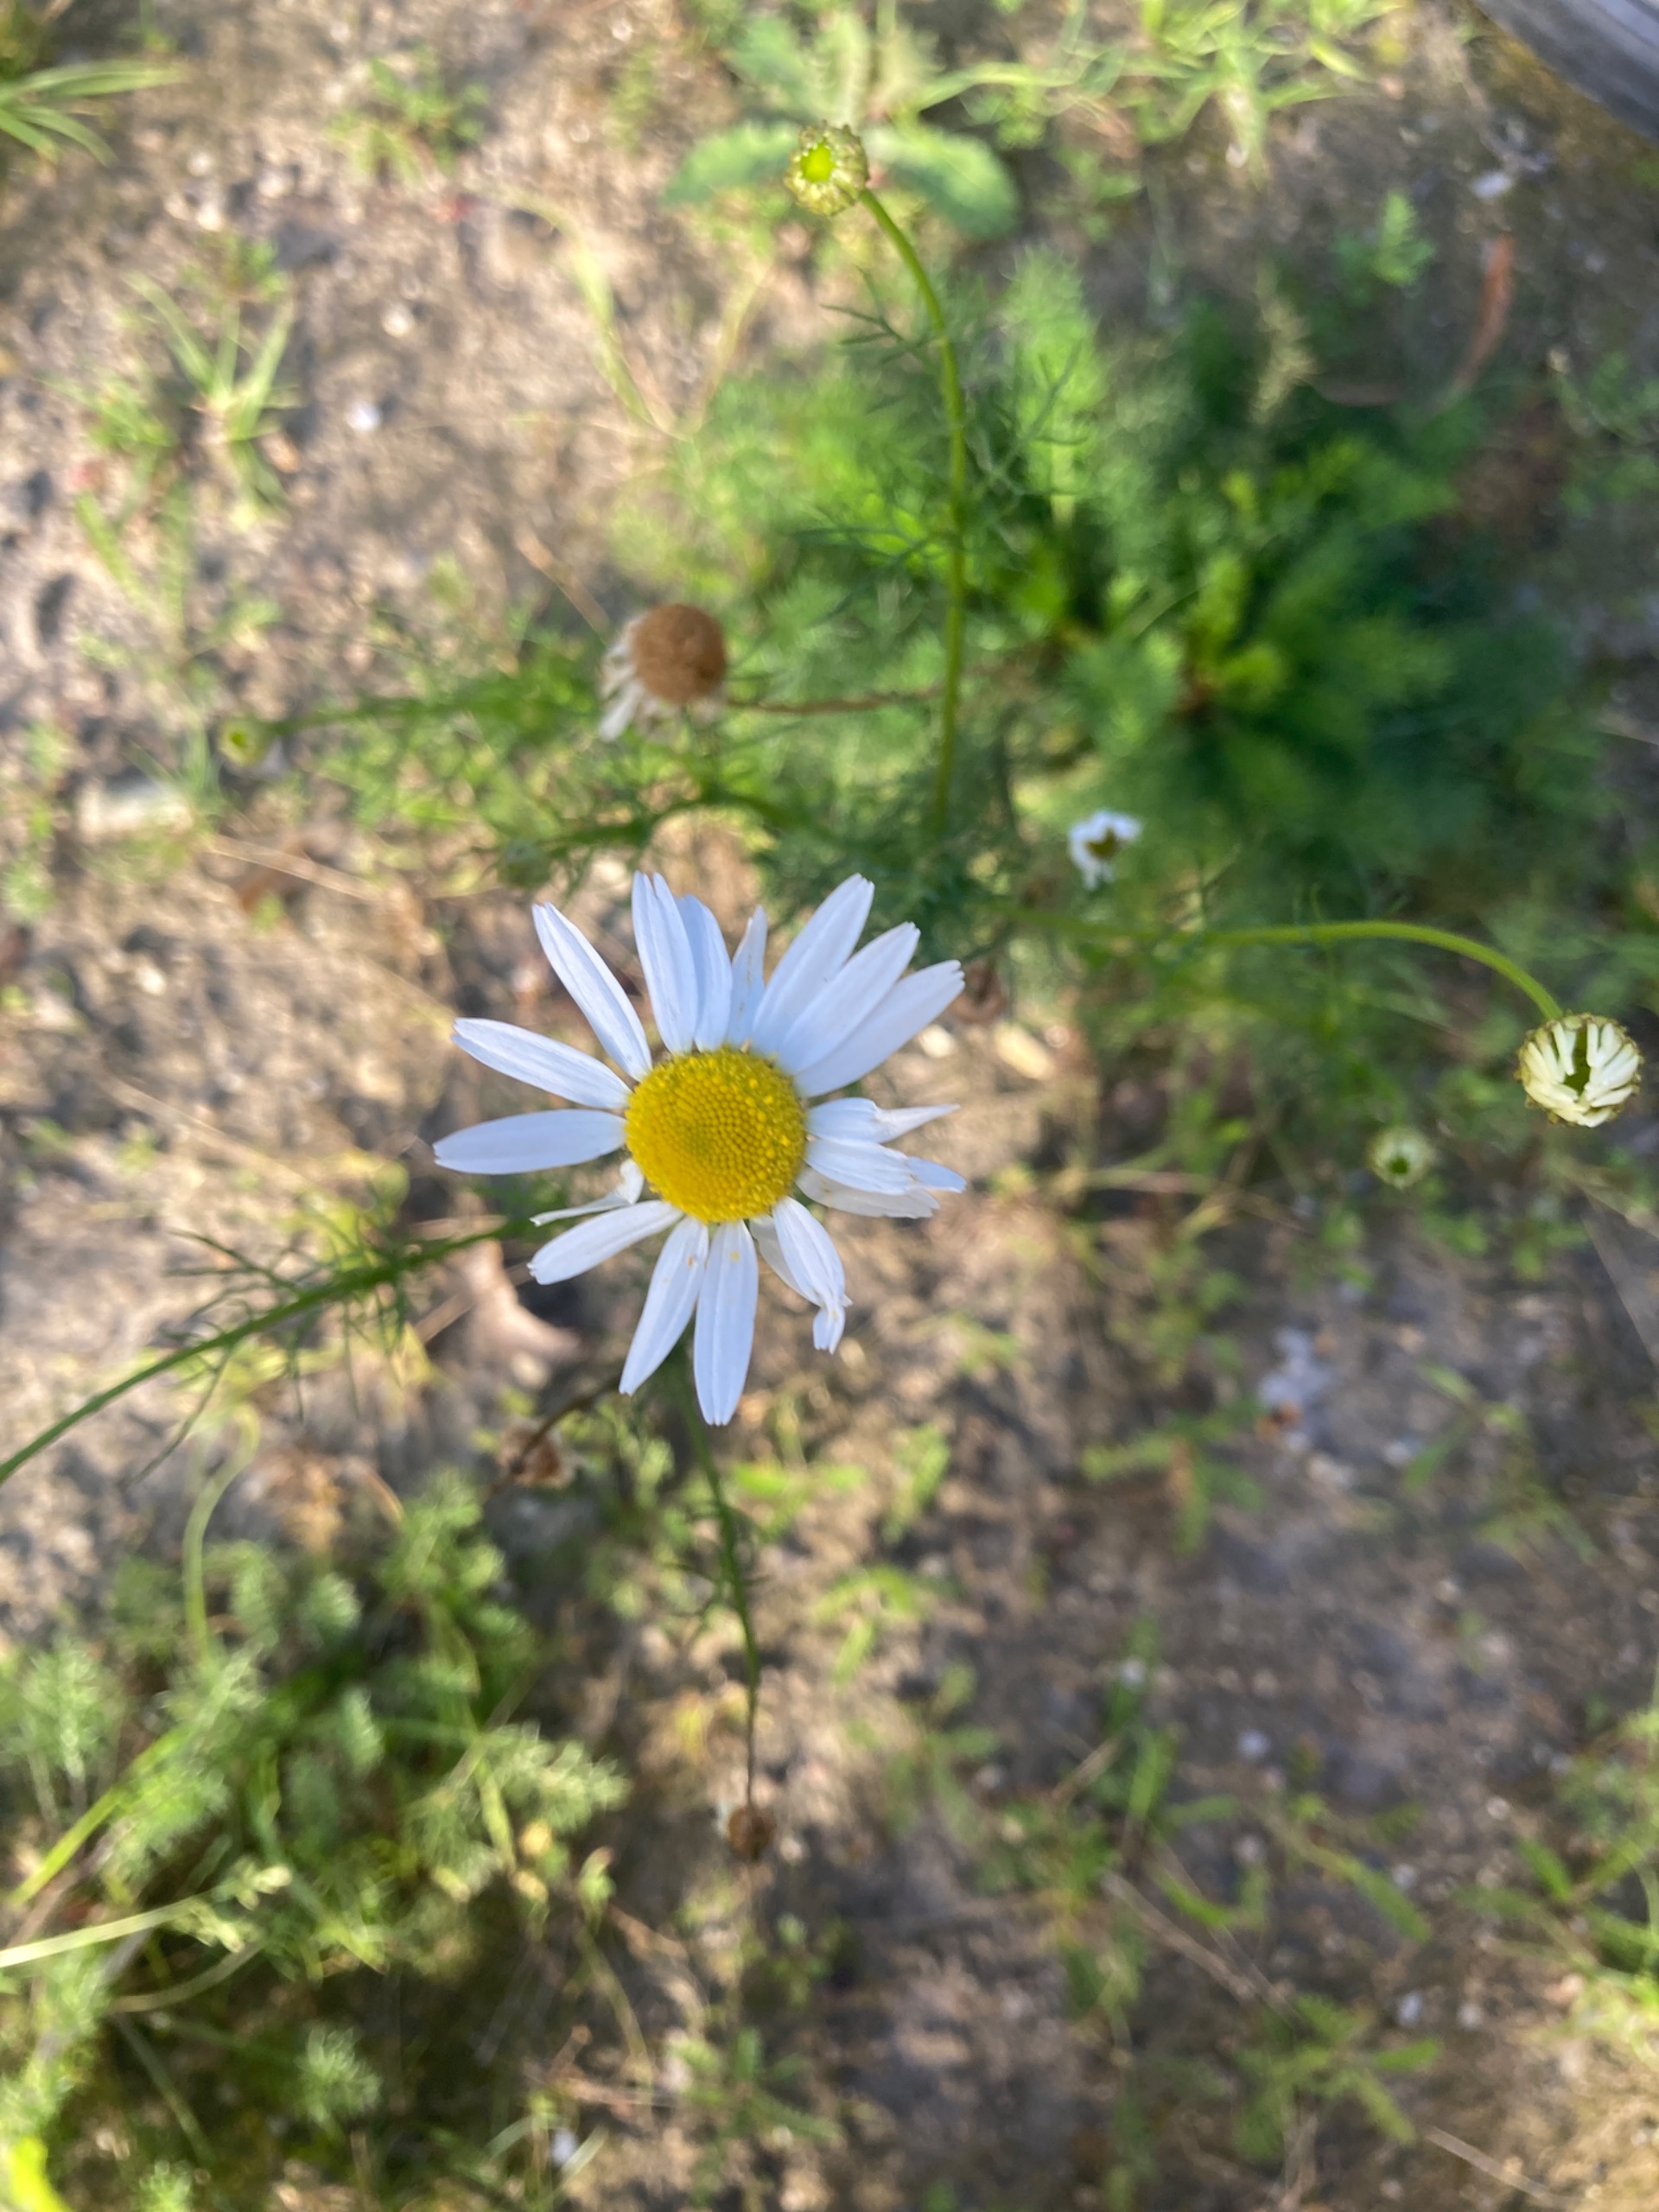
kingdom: Plantae
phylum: Tracheophyta
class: Magnoliopsida
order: Asterales
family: Asteraceae
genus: Tripleurospermum
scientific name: Tripleurospermum inodorum
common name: Lugtløs kamille
